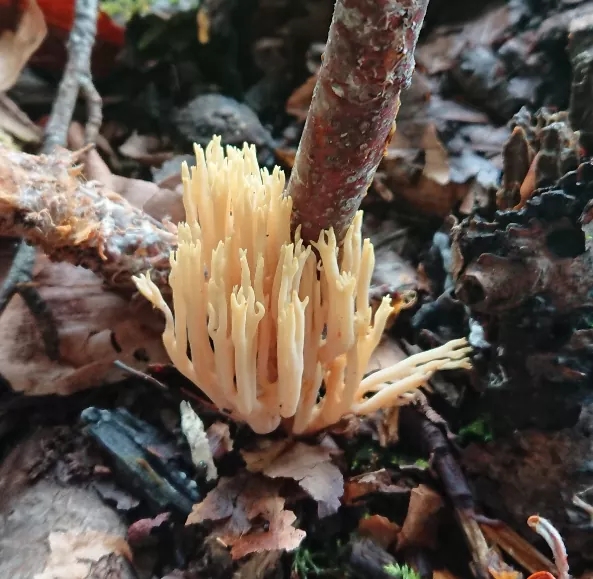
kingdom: Fungi
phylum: Basidiomycota
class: Agaricomycetes
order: Gomphales
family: Gomphaceae
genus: Ramaria
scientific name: Ramaria stricta
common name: rank koralsvamp
